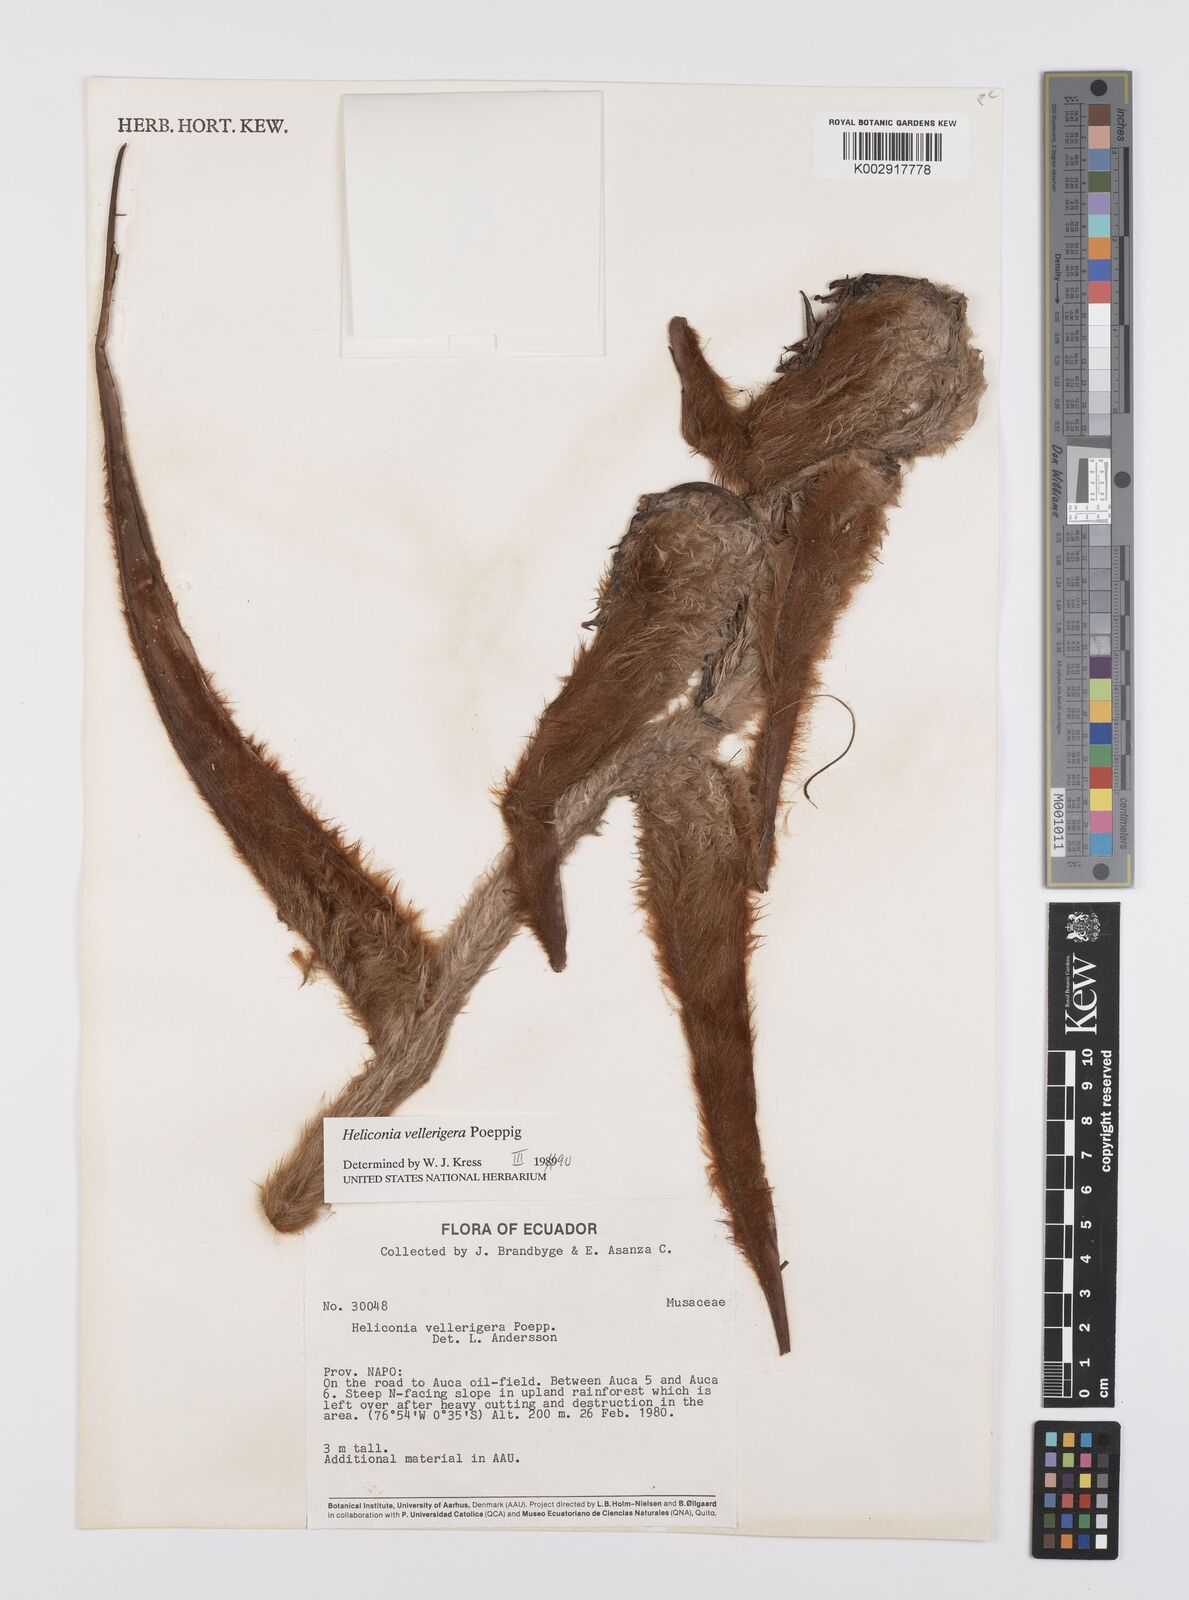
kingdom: Plantae
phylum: Tracheophyta
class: Liliopsida
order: Zingiberales
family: Heliconiaceae
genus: Heliconia
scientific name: Heliconia vellerigera
